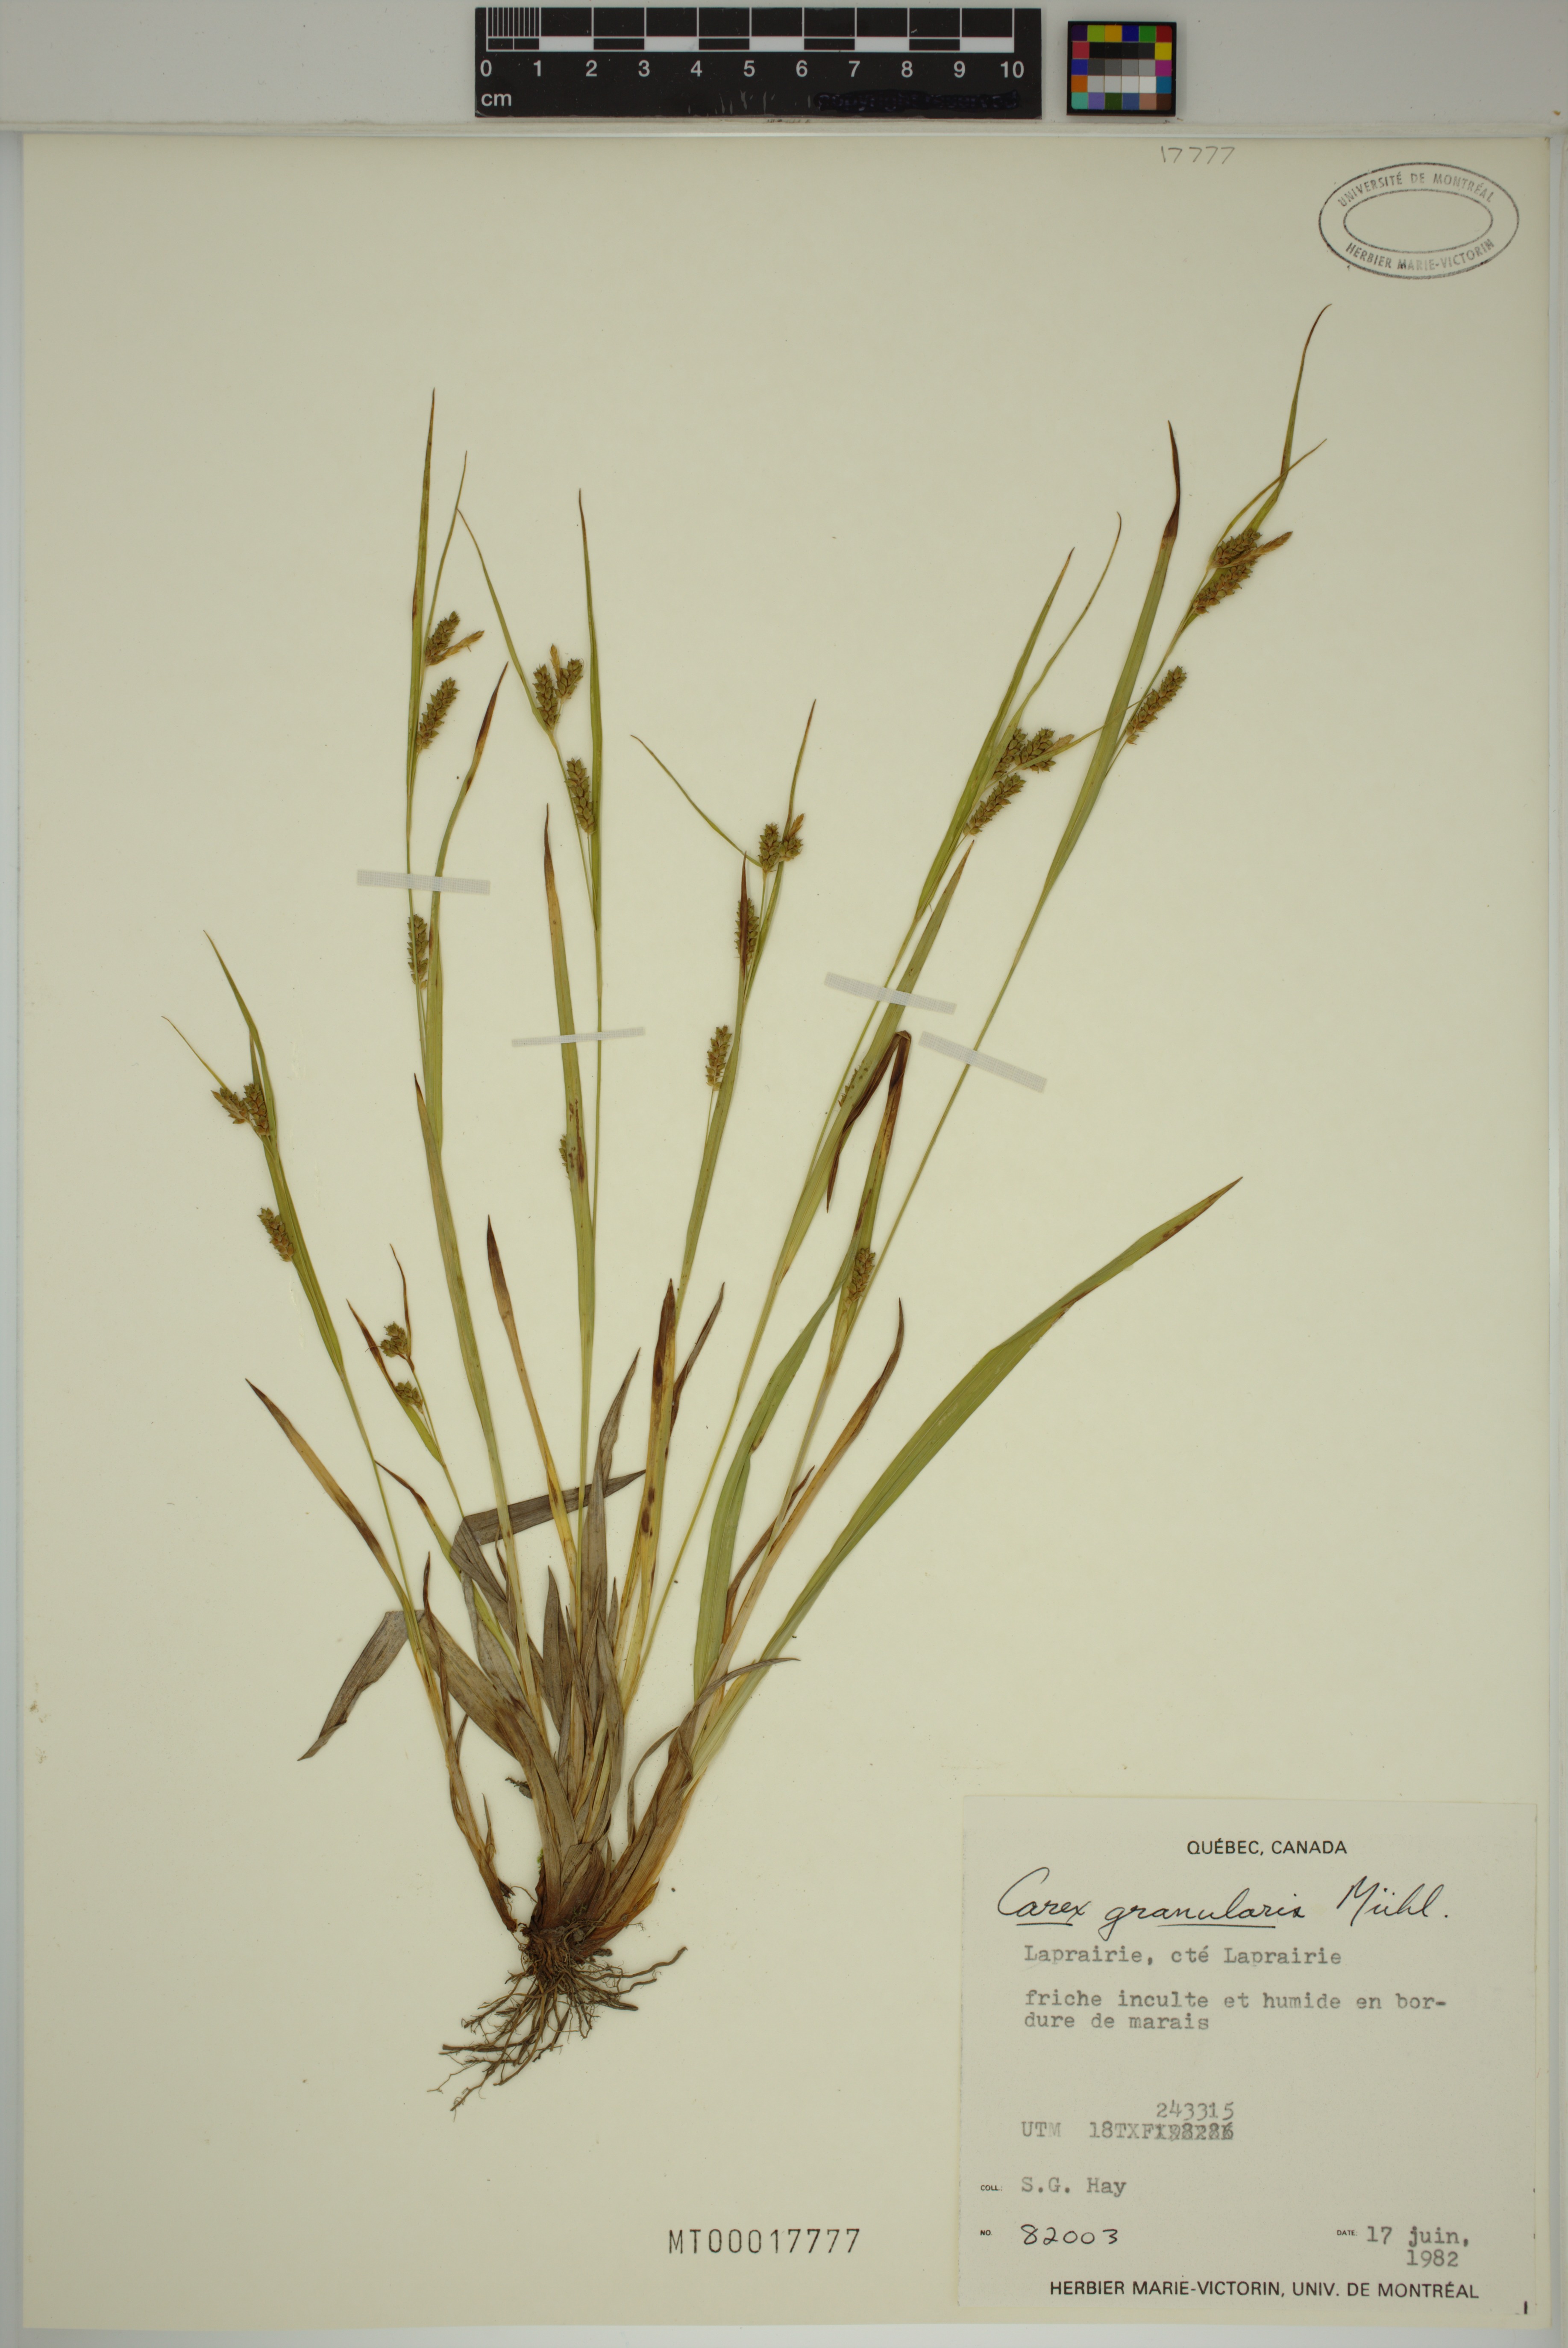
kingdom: Plantae
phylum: Tracheophyta
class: Liliopsida
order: Poales
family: Cyperaceae
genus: Carex
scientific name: Carex granularis
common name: Granular sedge
